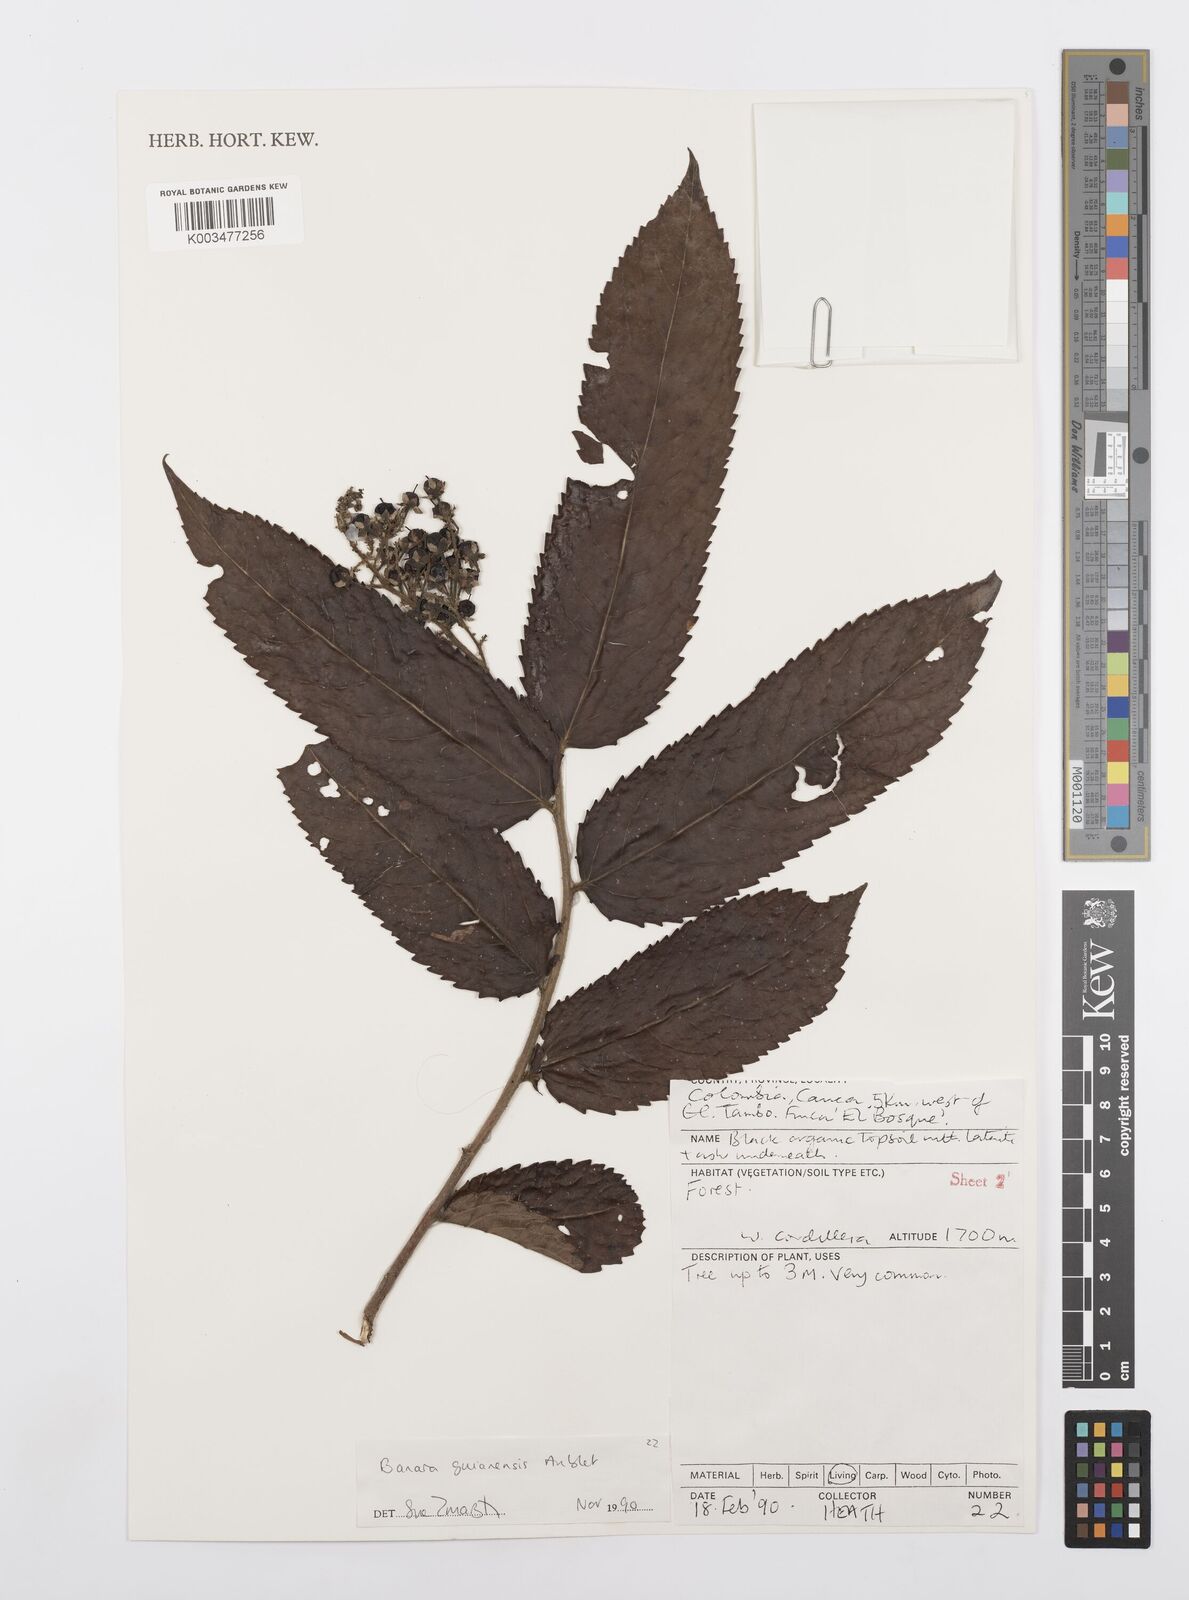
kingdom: Plantae
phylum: Tracheophyta
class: Magnoliopsida
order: Malpighiales
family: Salicaceae
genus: Banara
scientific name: Banara guianensis
